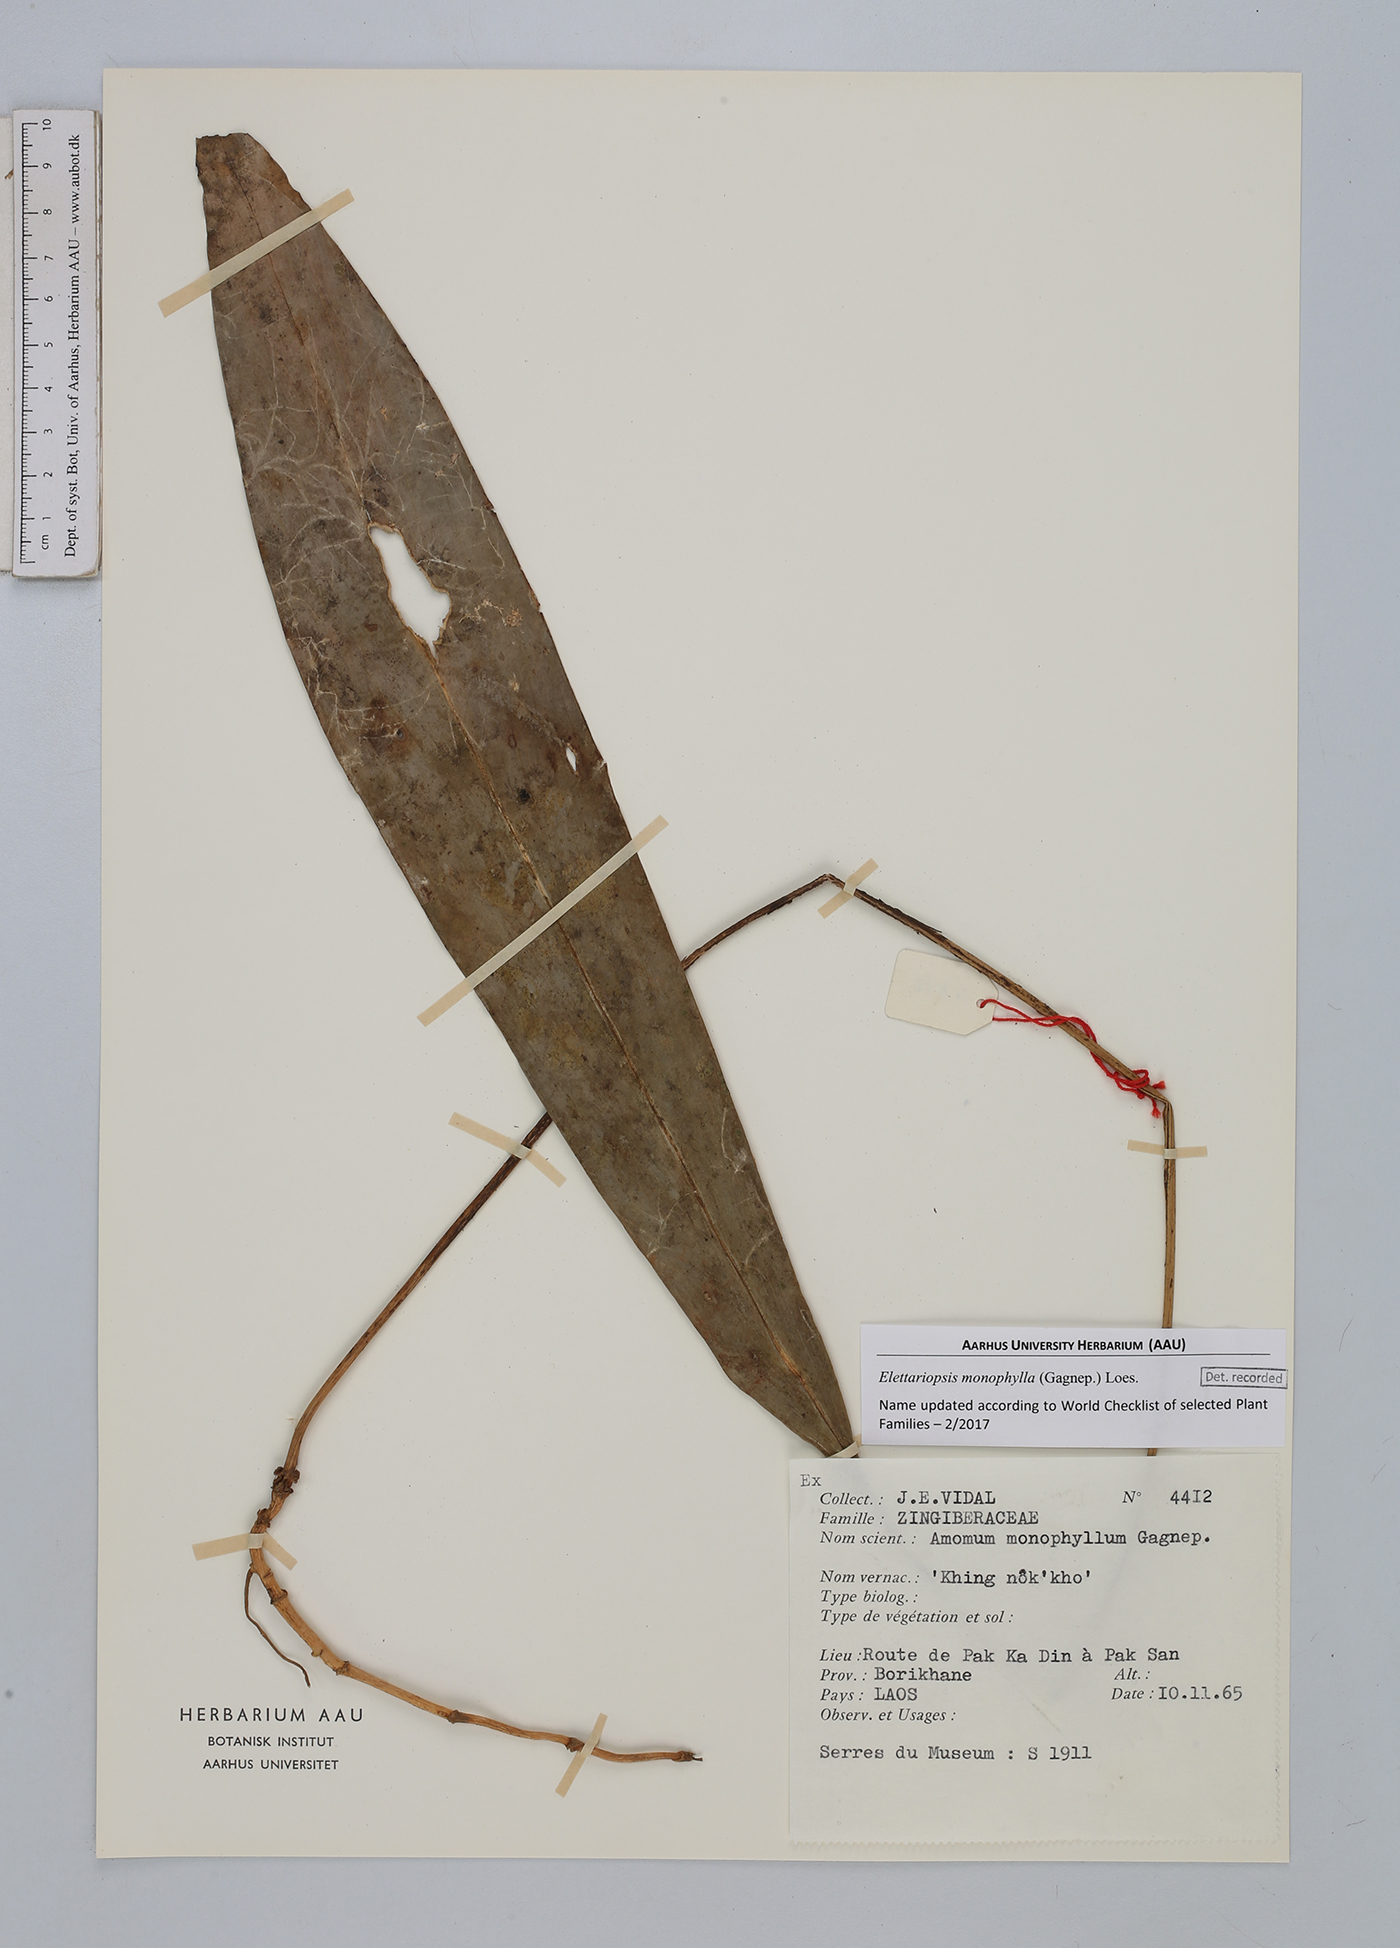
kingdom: Plantae
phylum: Tracheophyta
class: Liliopsida
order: Zingiberales
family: Zingiberaceae
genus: Amomum
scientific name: Amomum monophyllum
